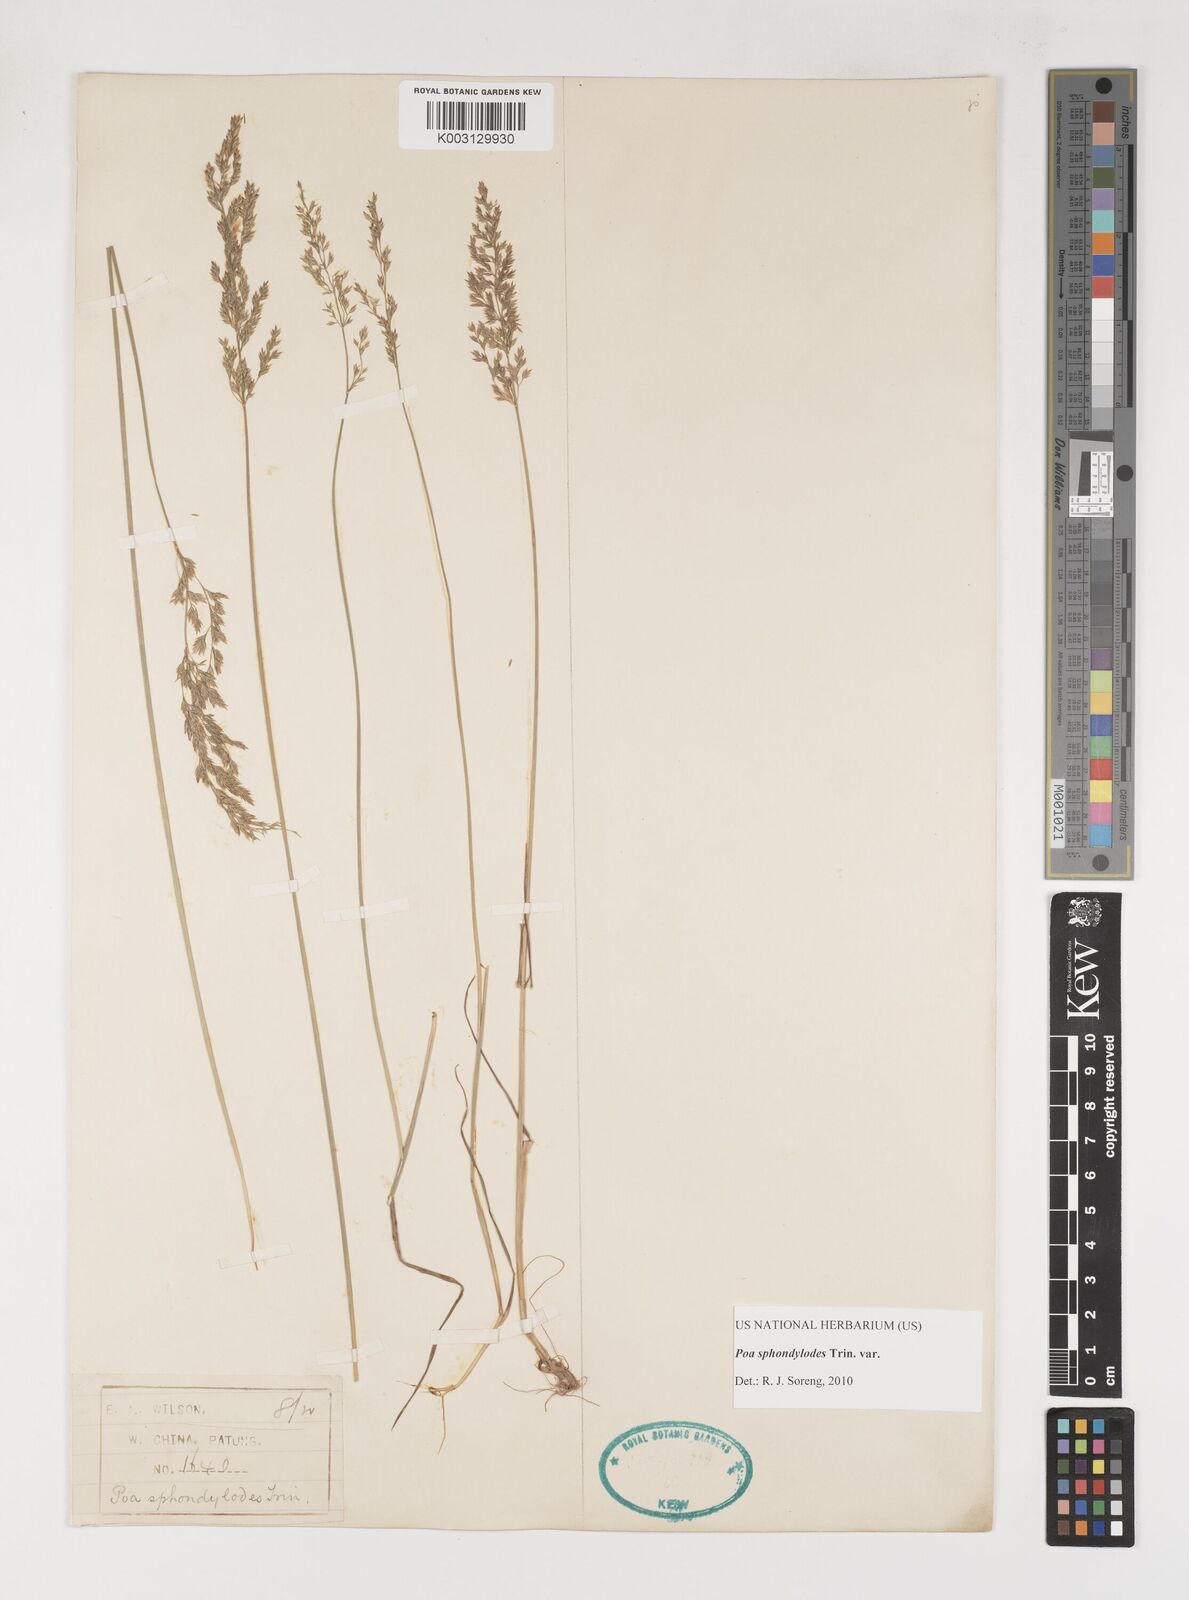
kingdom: Plantae
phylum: Tracheophyta
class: Liliopsida
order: Poales
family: Poaceae
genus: Poa
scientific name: Poa sphondylodes
